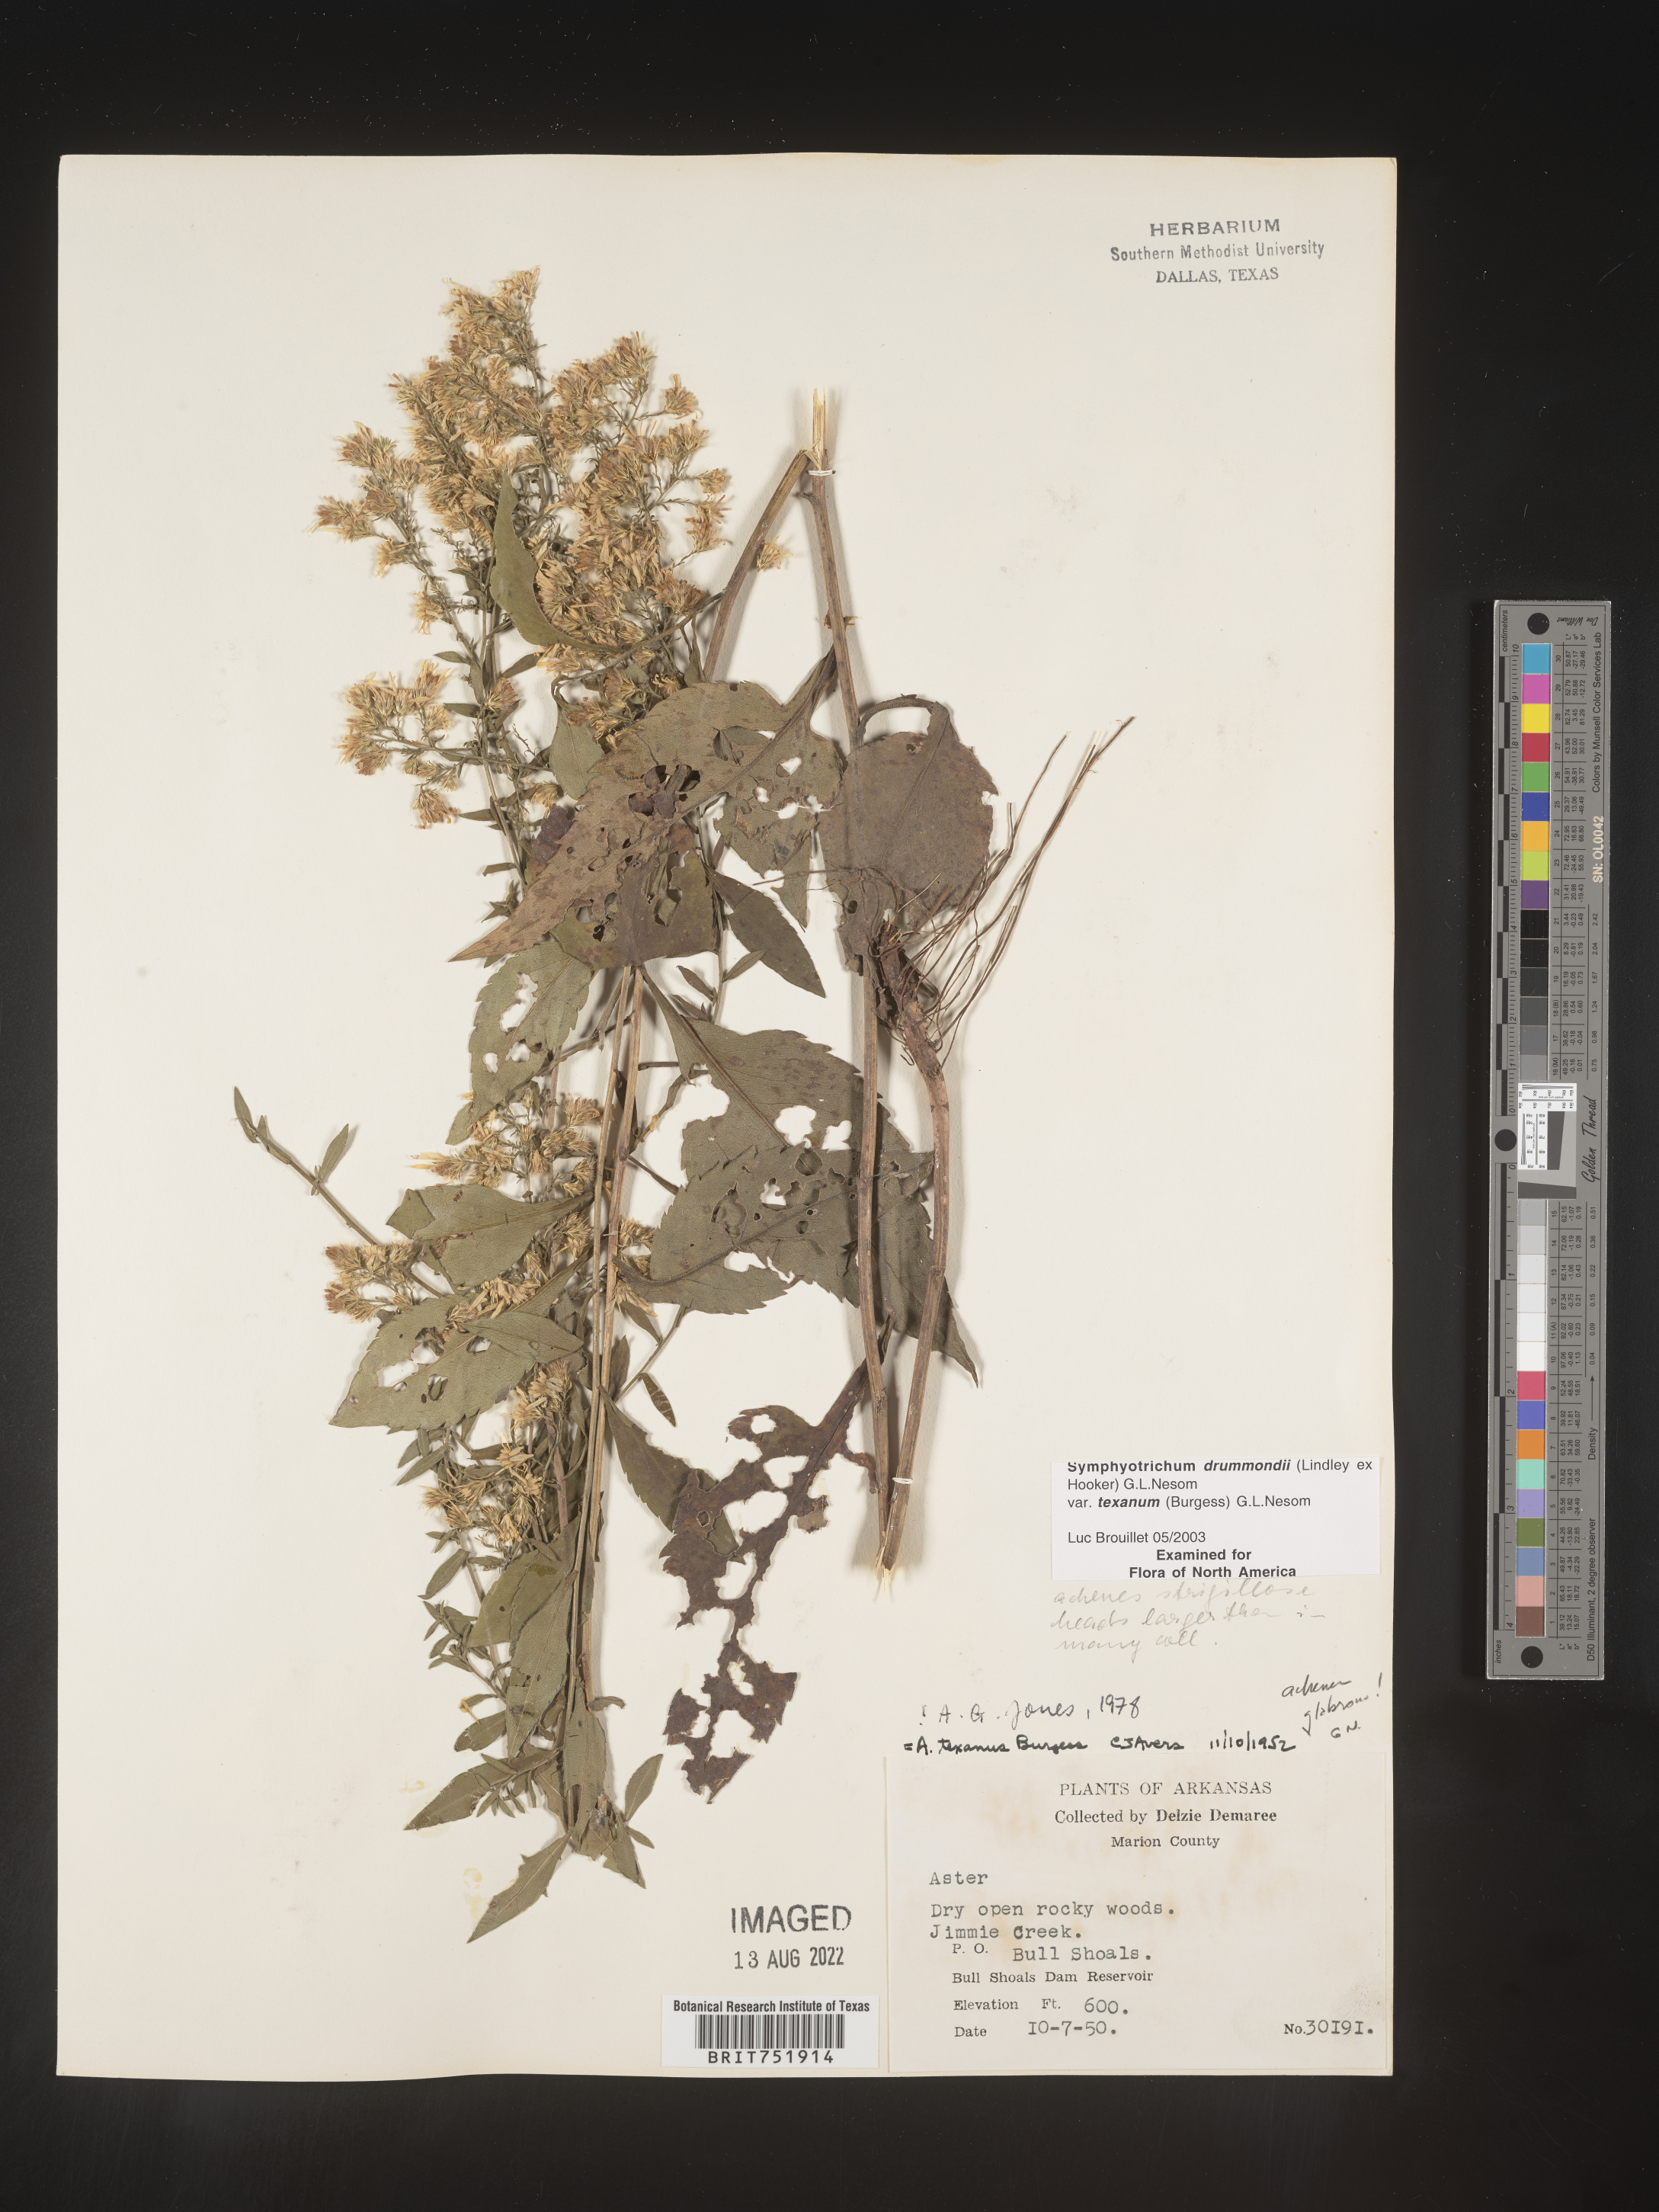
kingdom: Plantae
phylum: Tracheophyta
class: Magnoliopsida
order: Asterales
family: Asteraceae
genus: Symphyotrichum
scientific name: Symphyotrichum drummondii
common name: Drummond's aster
